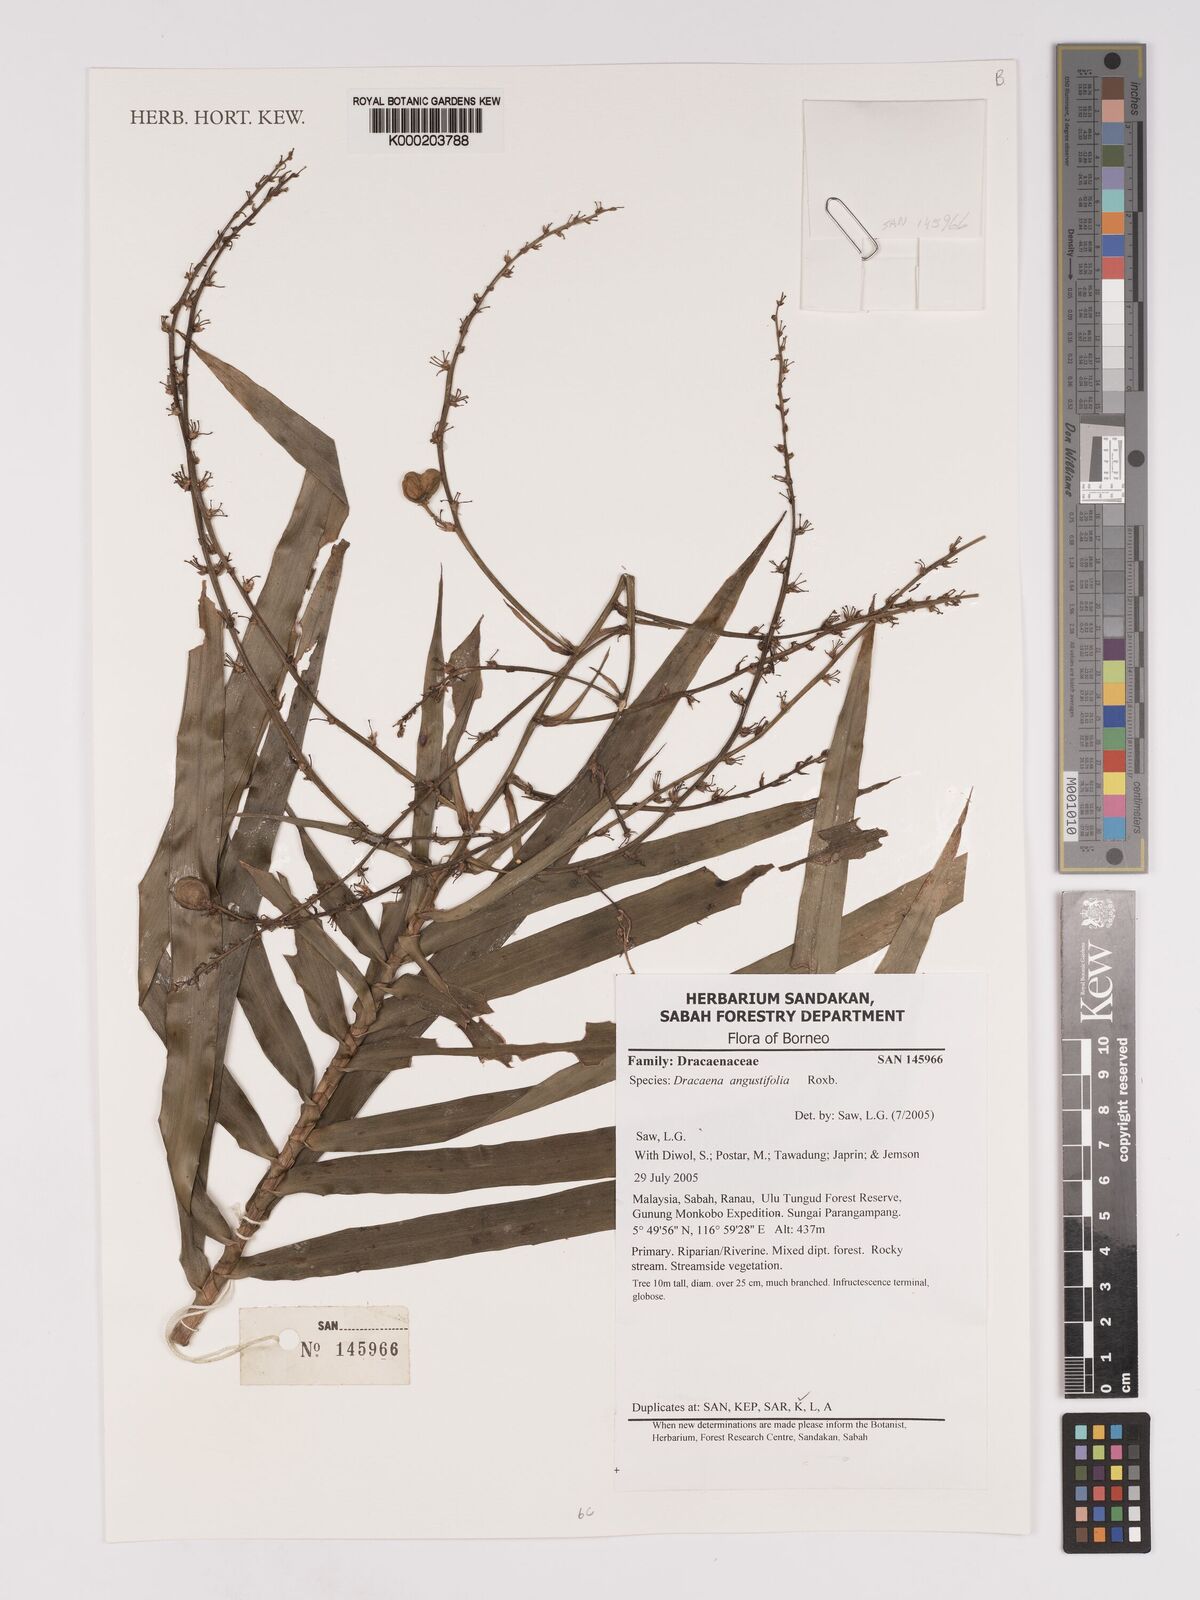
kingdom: Plantae
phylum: Tracheophyta
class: Liliopsida
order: Asparagales
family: Asparagaceae
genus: Dracaena
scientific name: Dracaena angustifolia
